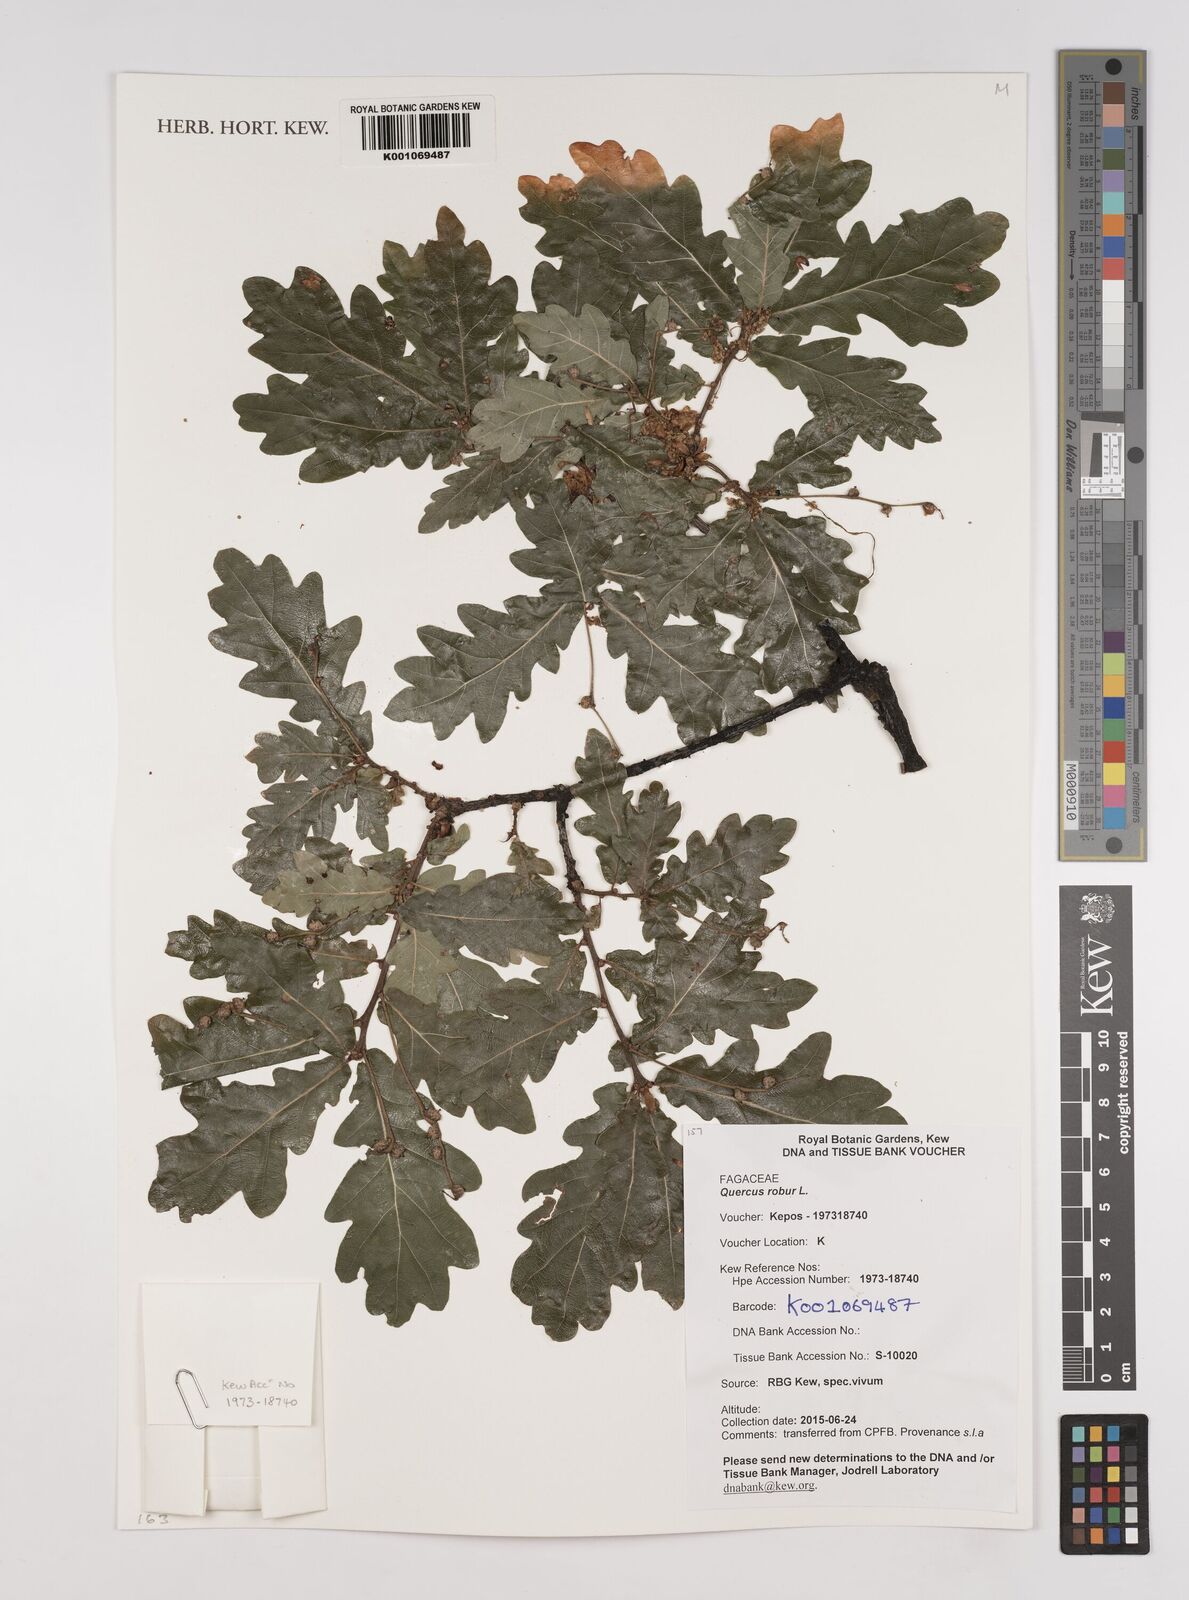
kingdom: Plantae
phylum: Tracheophyta
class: Magnoliopsida
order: Fagales
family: Fagaceae
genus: Quercus
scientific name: Quercus robur
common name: Pedunculate oak
